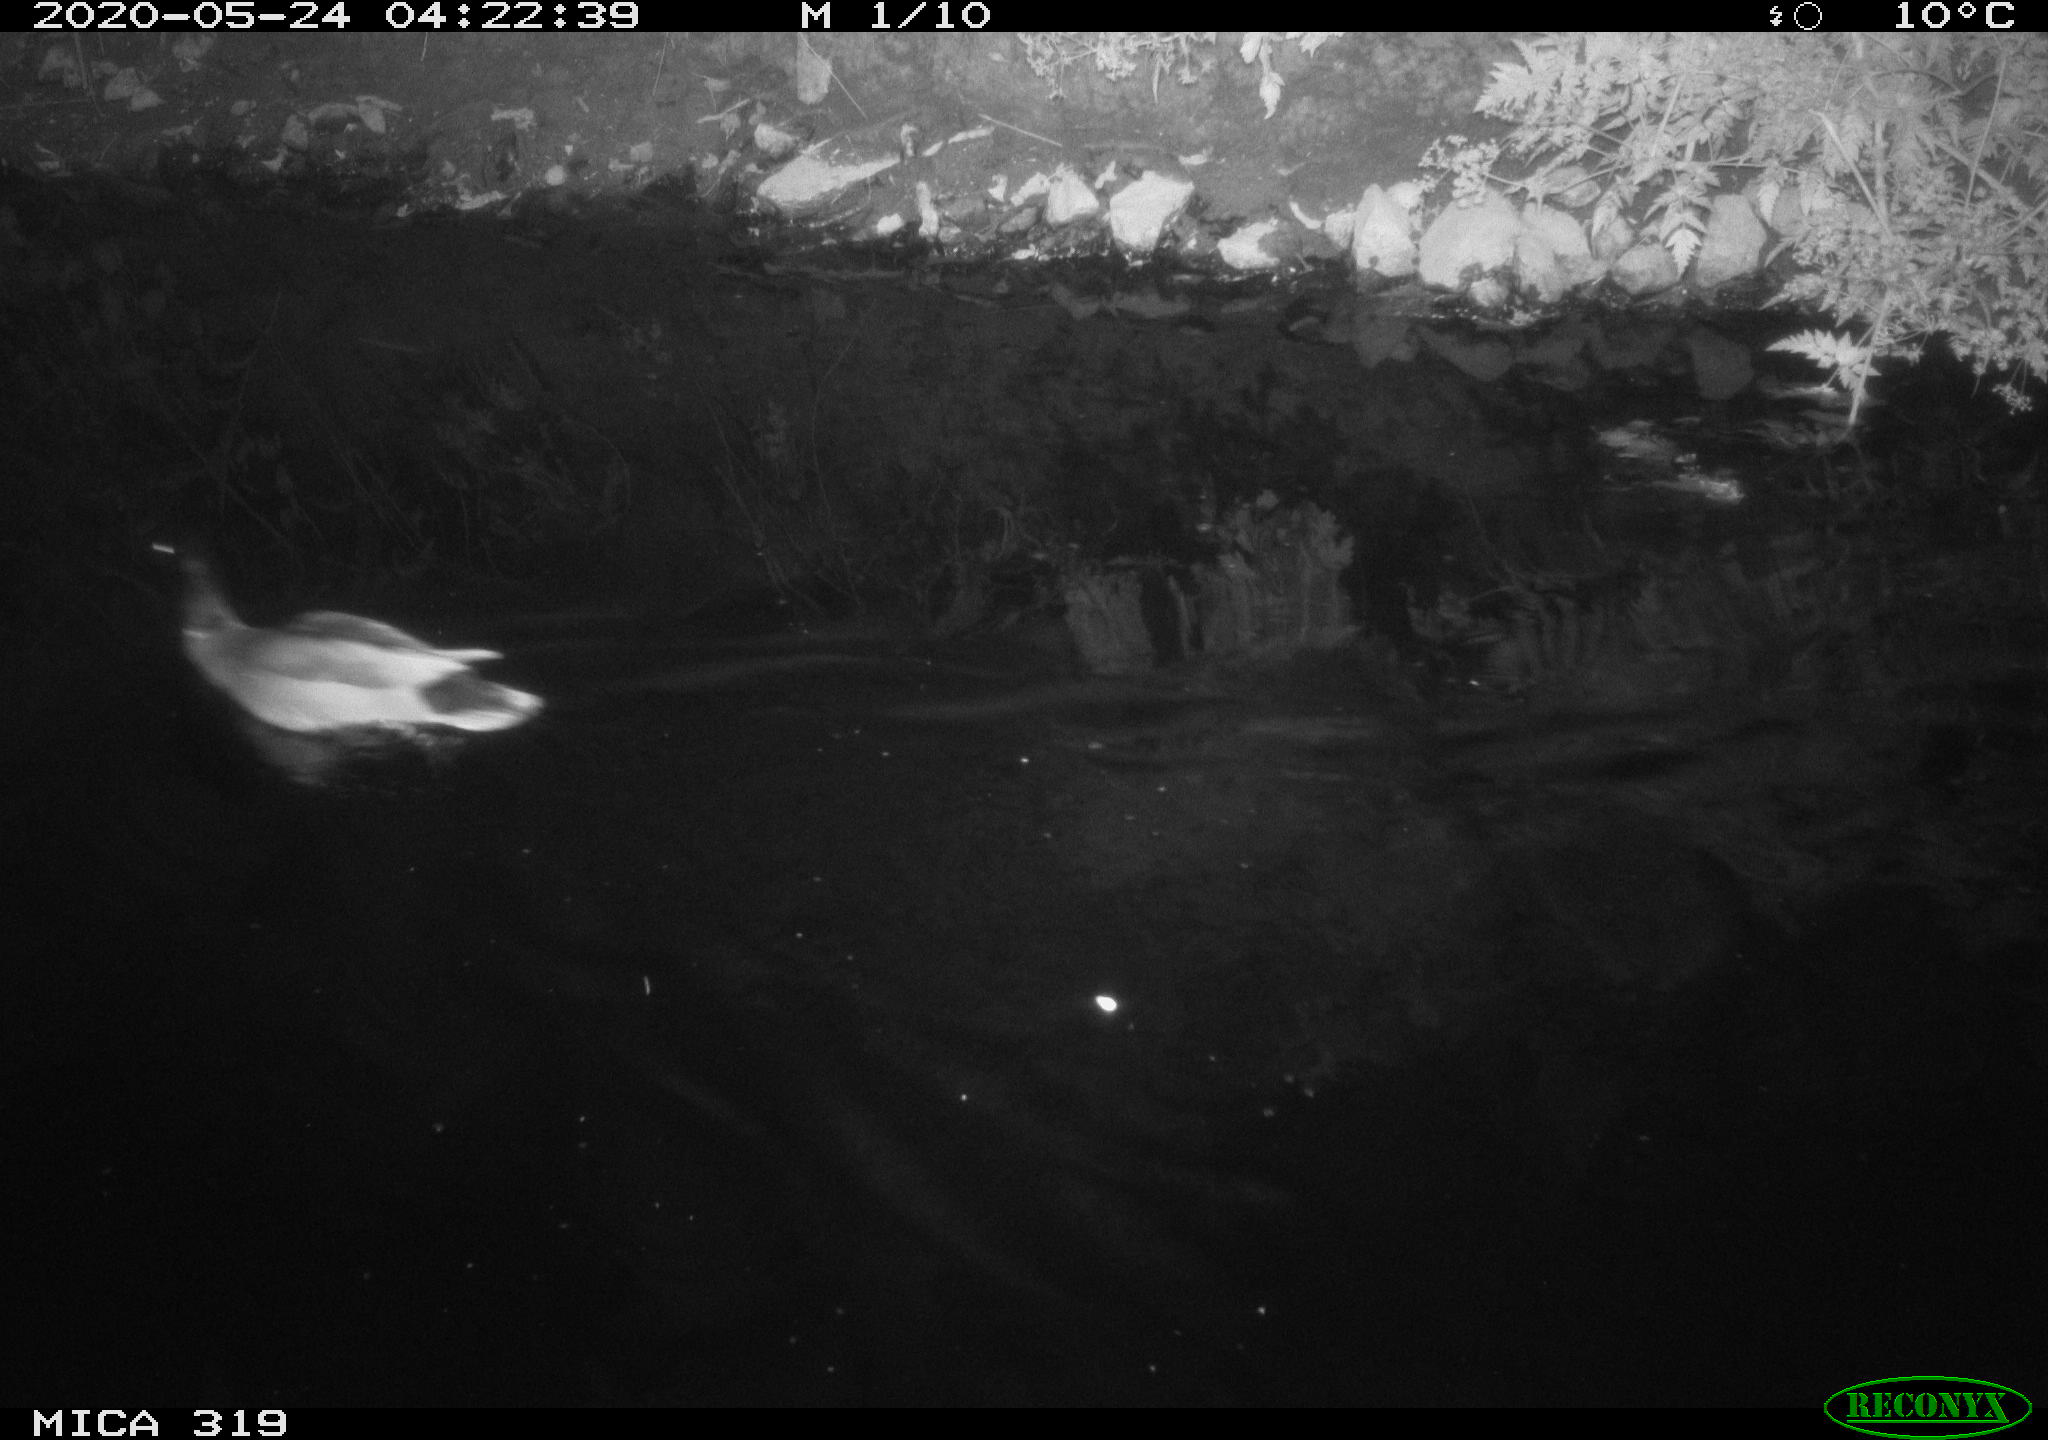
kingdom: Animalia
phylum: Chordata
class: Aves
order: Anseriformes
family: Anatidae
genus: Anas
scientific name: Anas platyrhynchos
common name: Mallard
